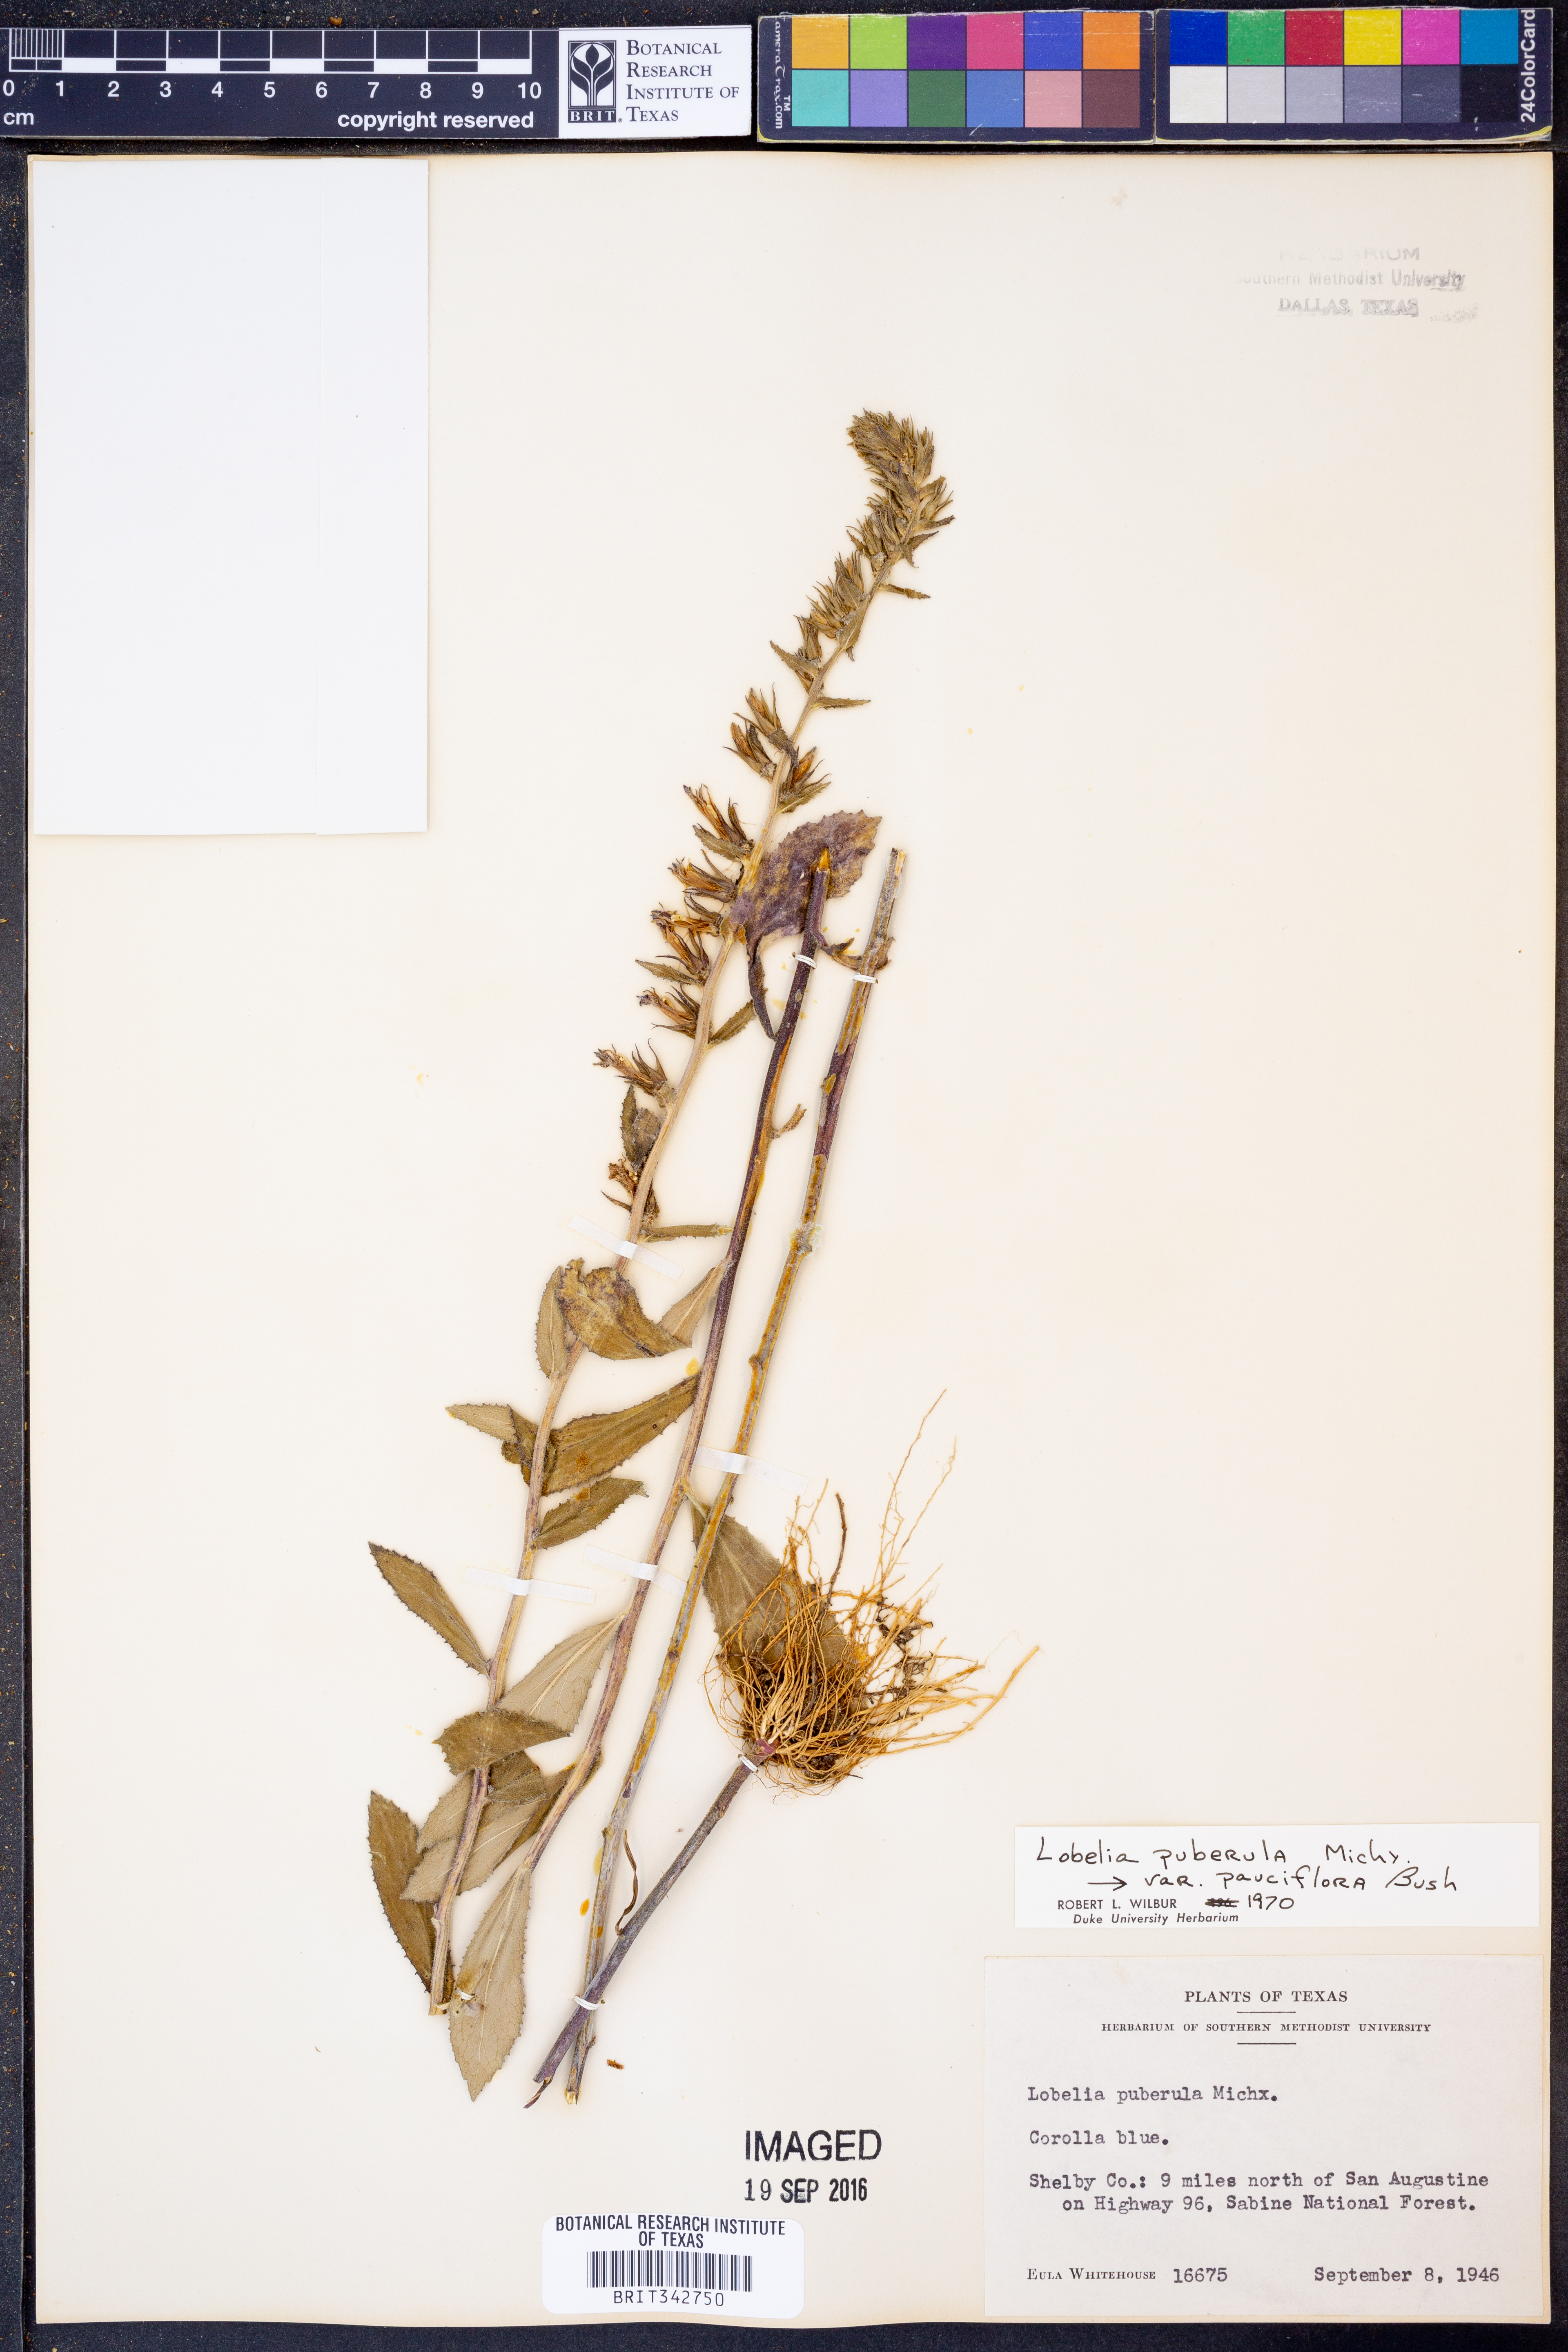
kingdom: Plantae
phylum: Tracheophyta
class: Magnoliopsida
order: Asterales
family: Campanulaceae
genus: Lobelia
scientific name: Lobelia reverchonii
